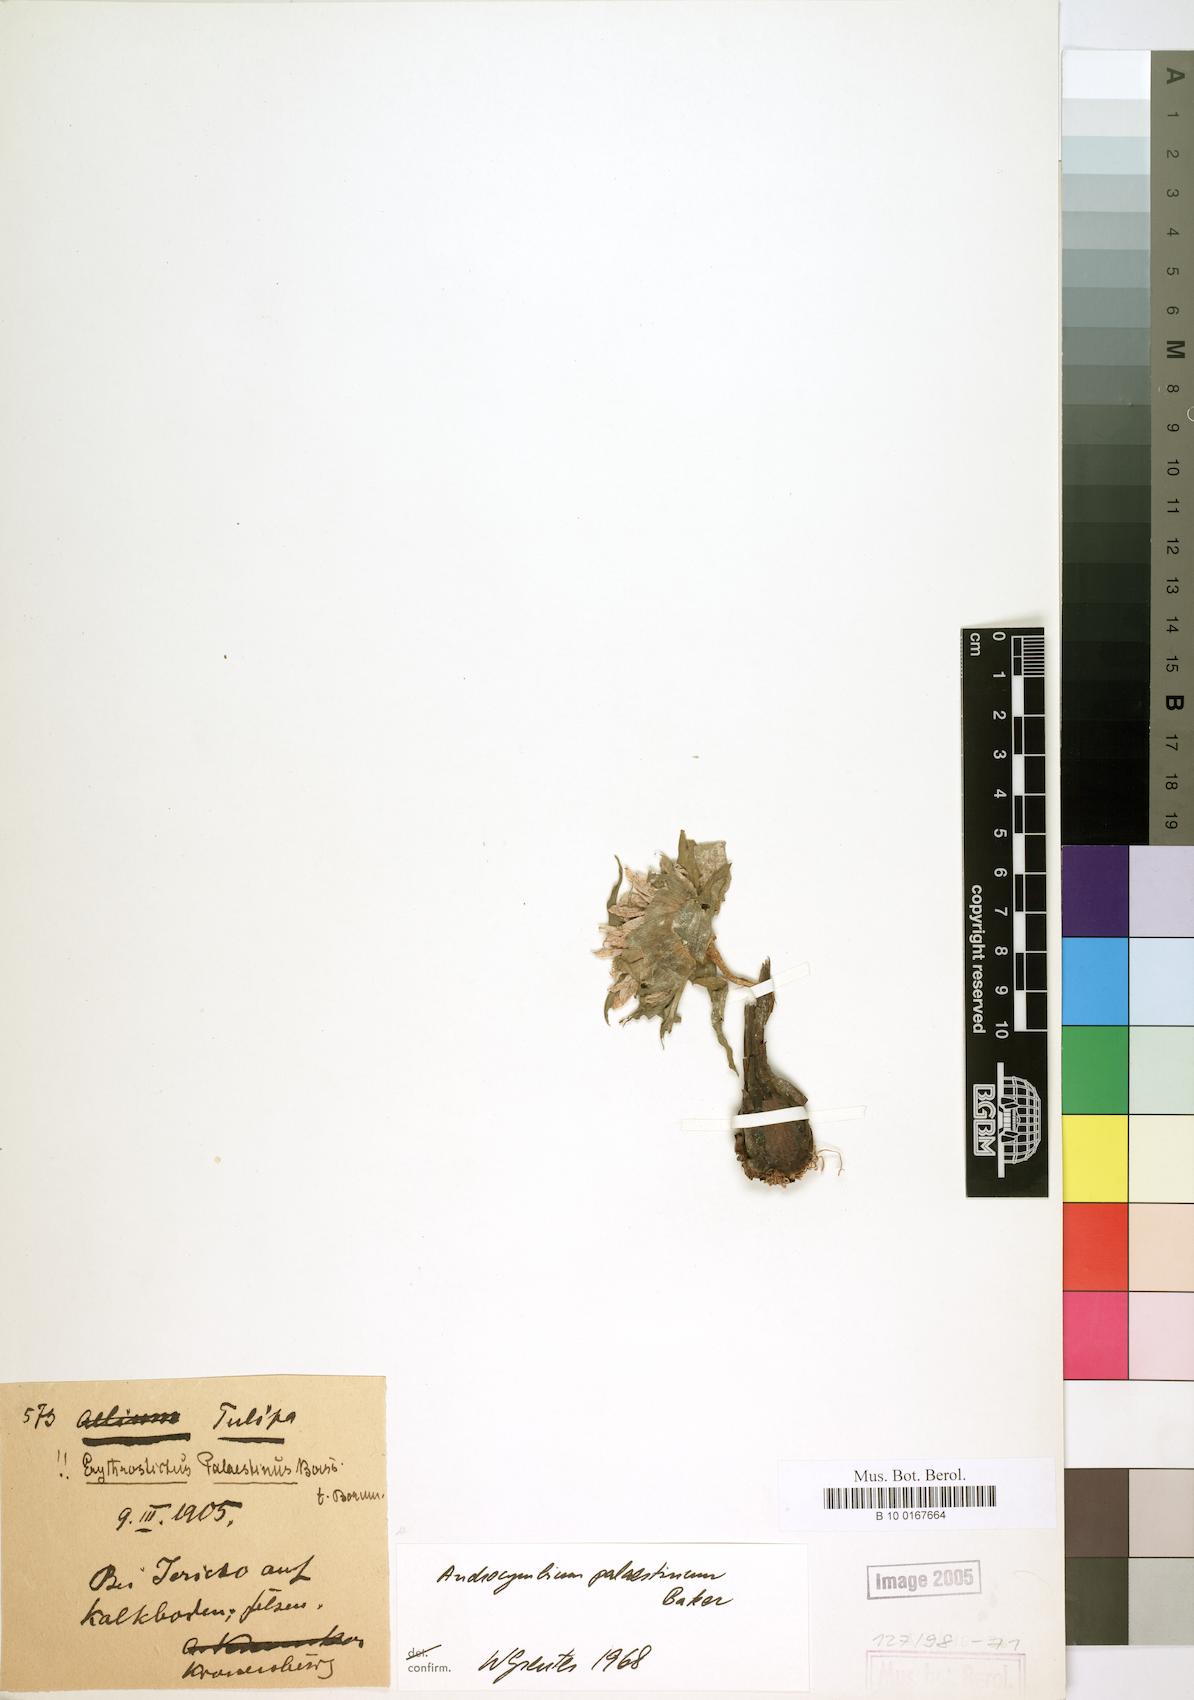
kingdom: Plantae
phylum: Tracheophyta
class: Liliopsida
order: Liliales
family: Colchicaceae
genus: Colchicum
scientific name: Colchicum palaestinum
